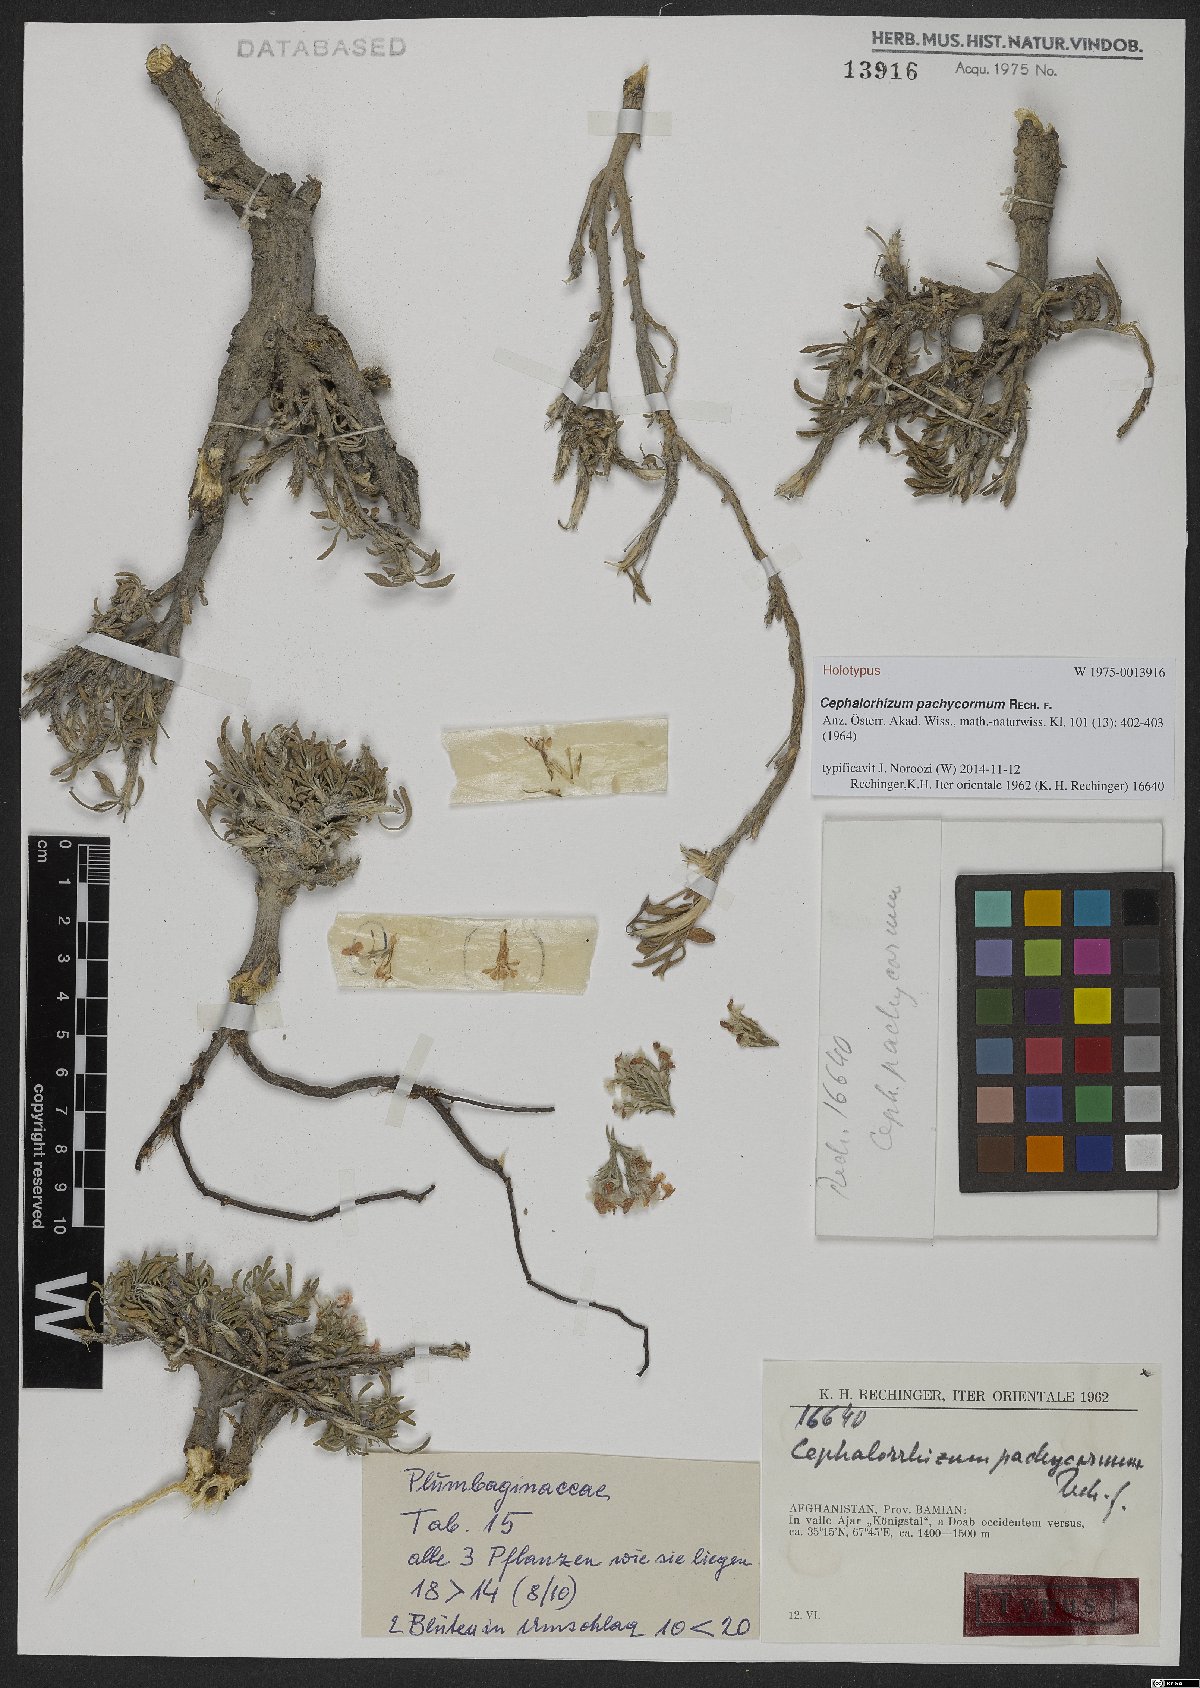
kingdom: Plantae
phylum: Tracheophyta
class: Magnoliopsida
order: Caryophyllales
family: Plumbaginaceae
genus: Bamiania
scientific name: Bamiania pachycorma
